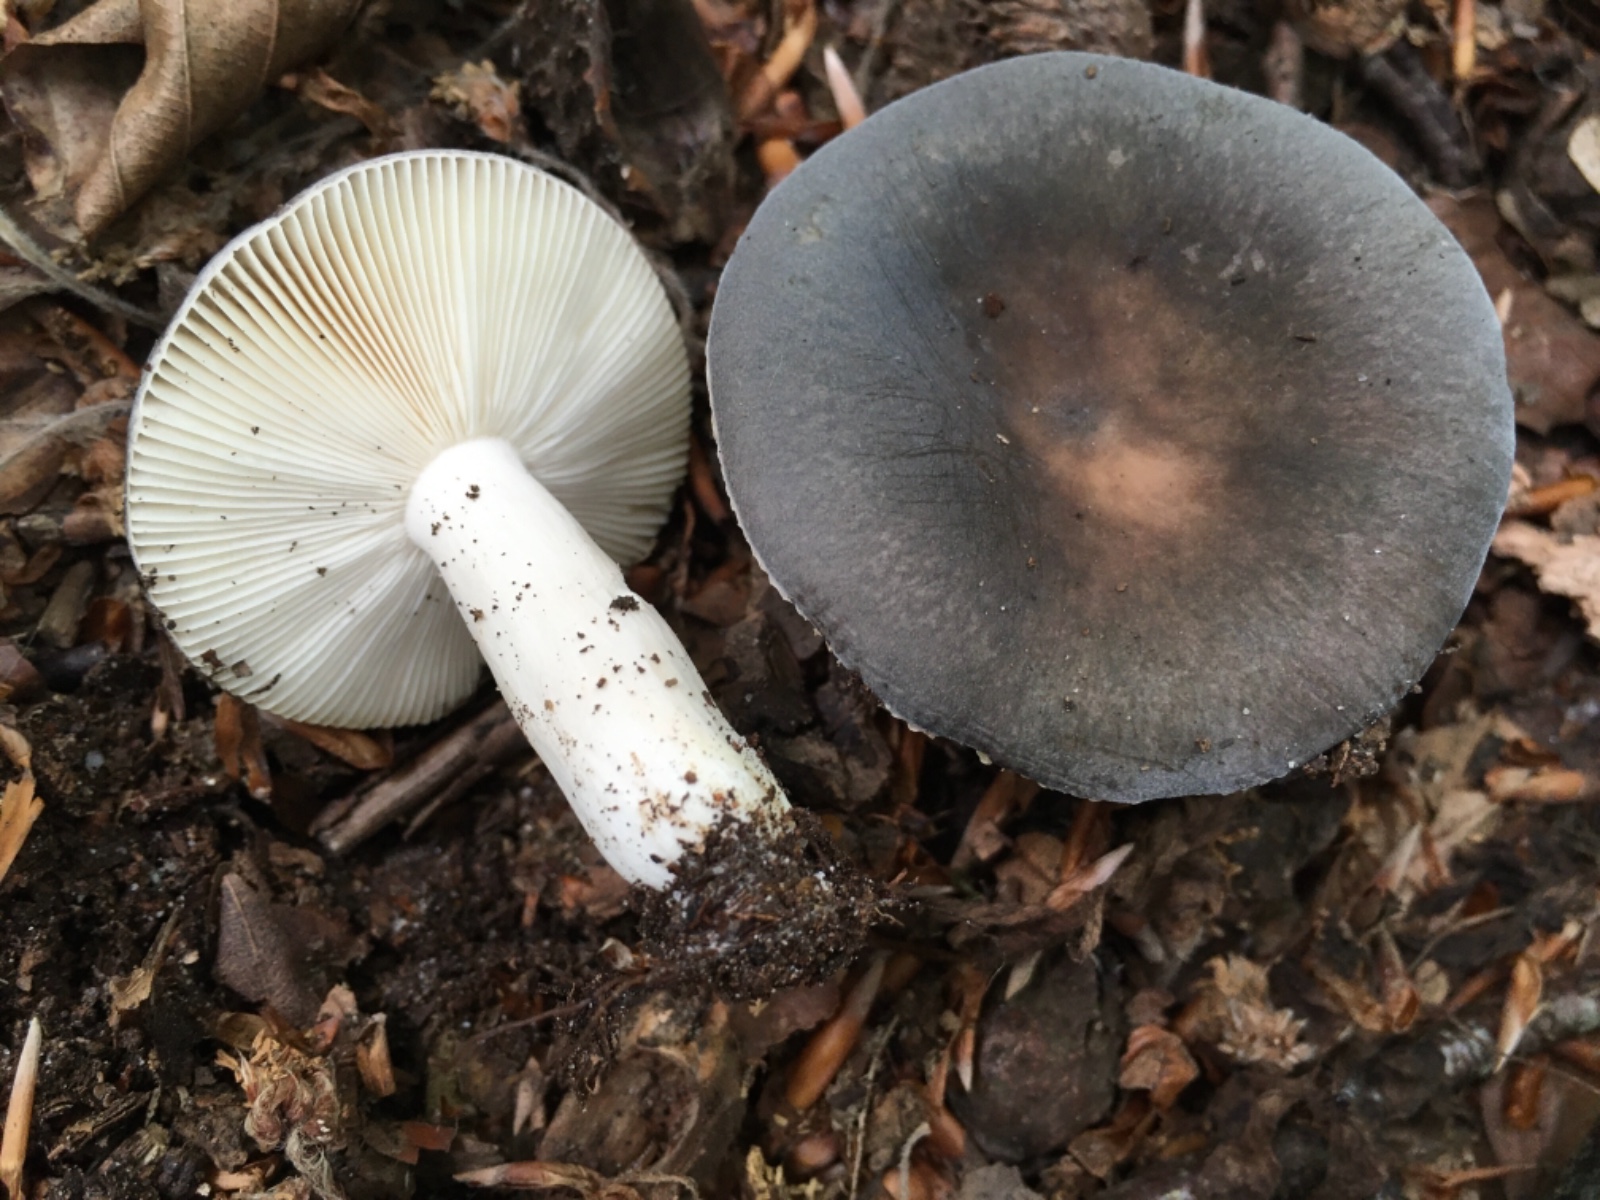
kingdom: Fungi
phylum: Basidiomycota
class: Agaricomycetes
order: Russulales
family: Russulaceae
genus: Russula
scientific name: Russula parazurea
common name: blågrå skørhat
